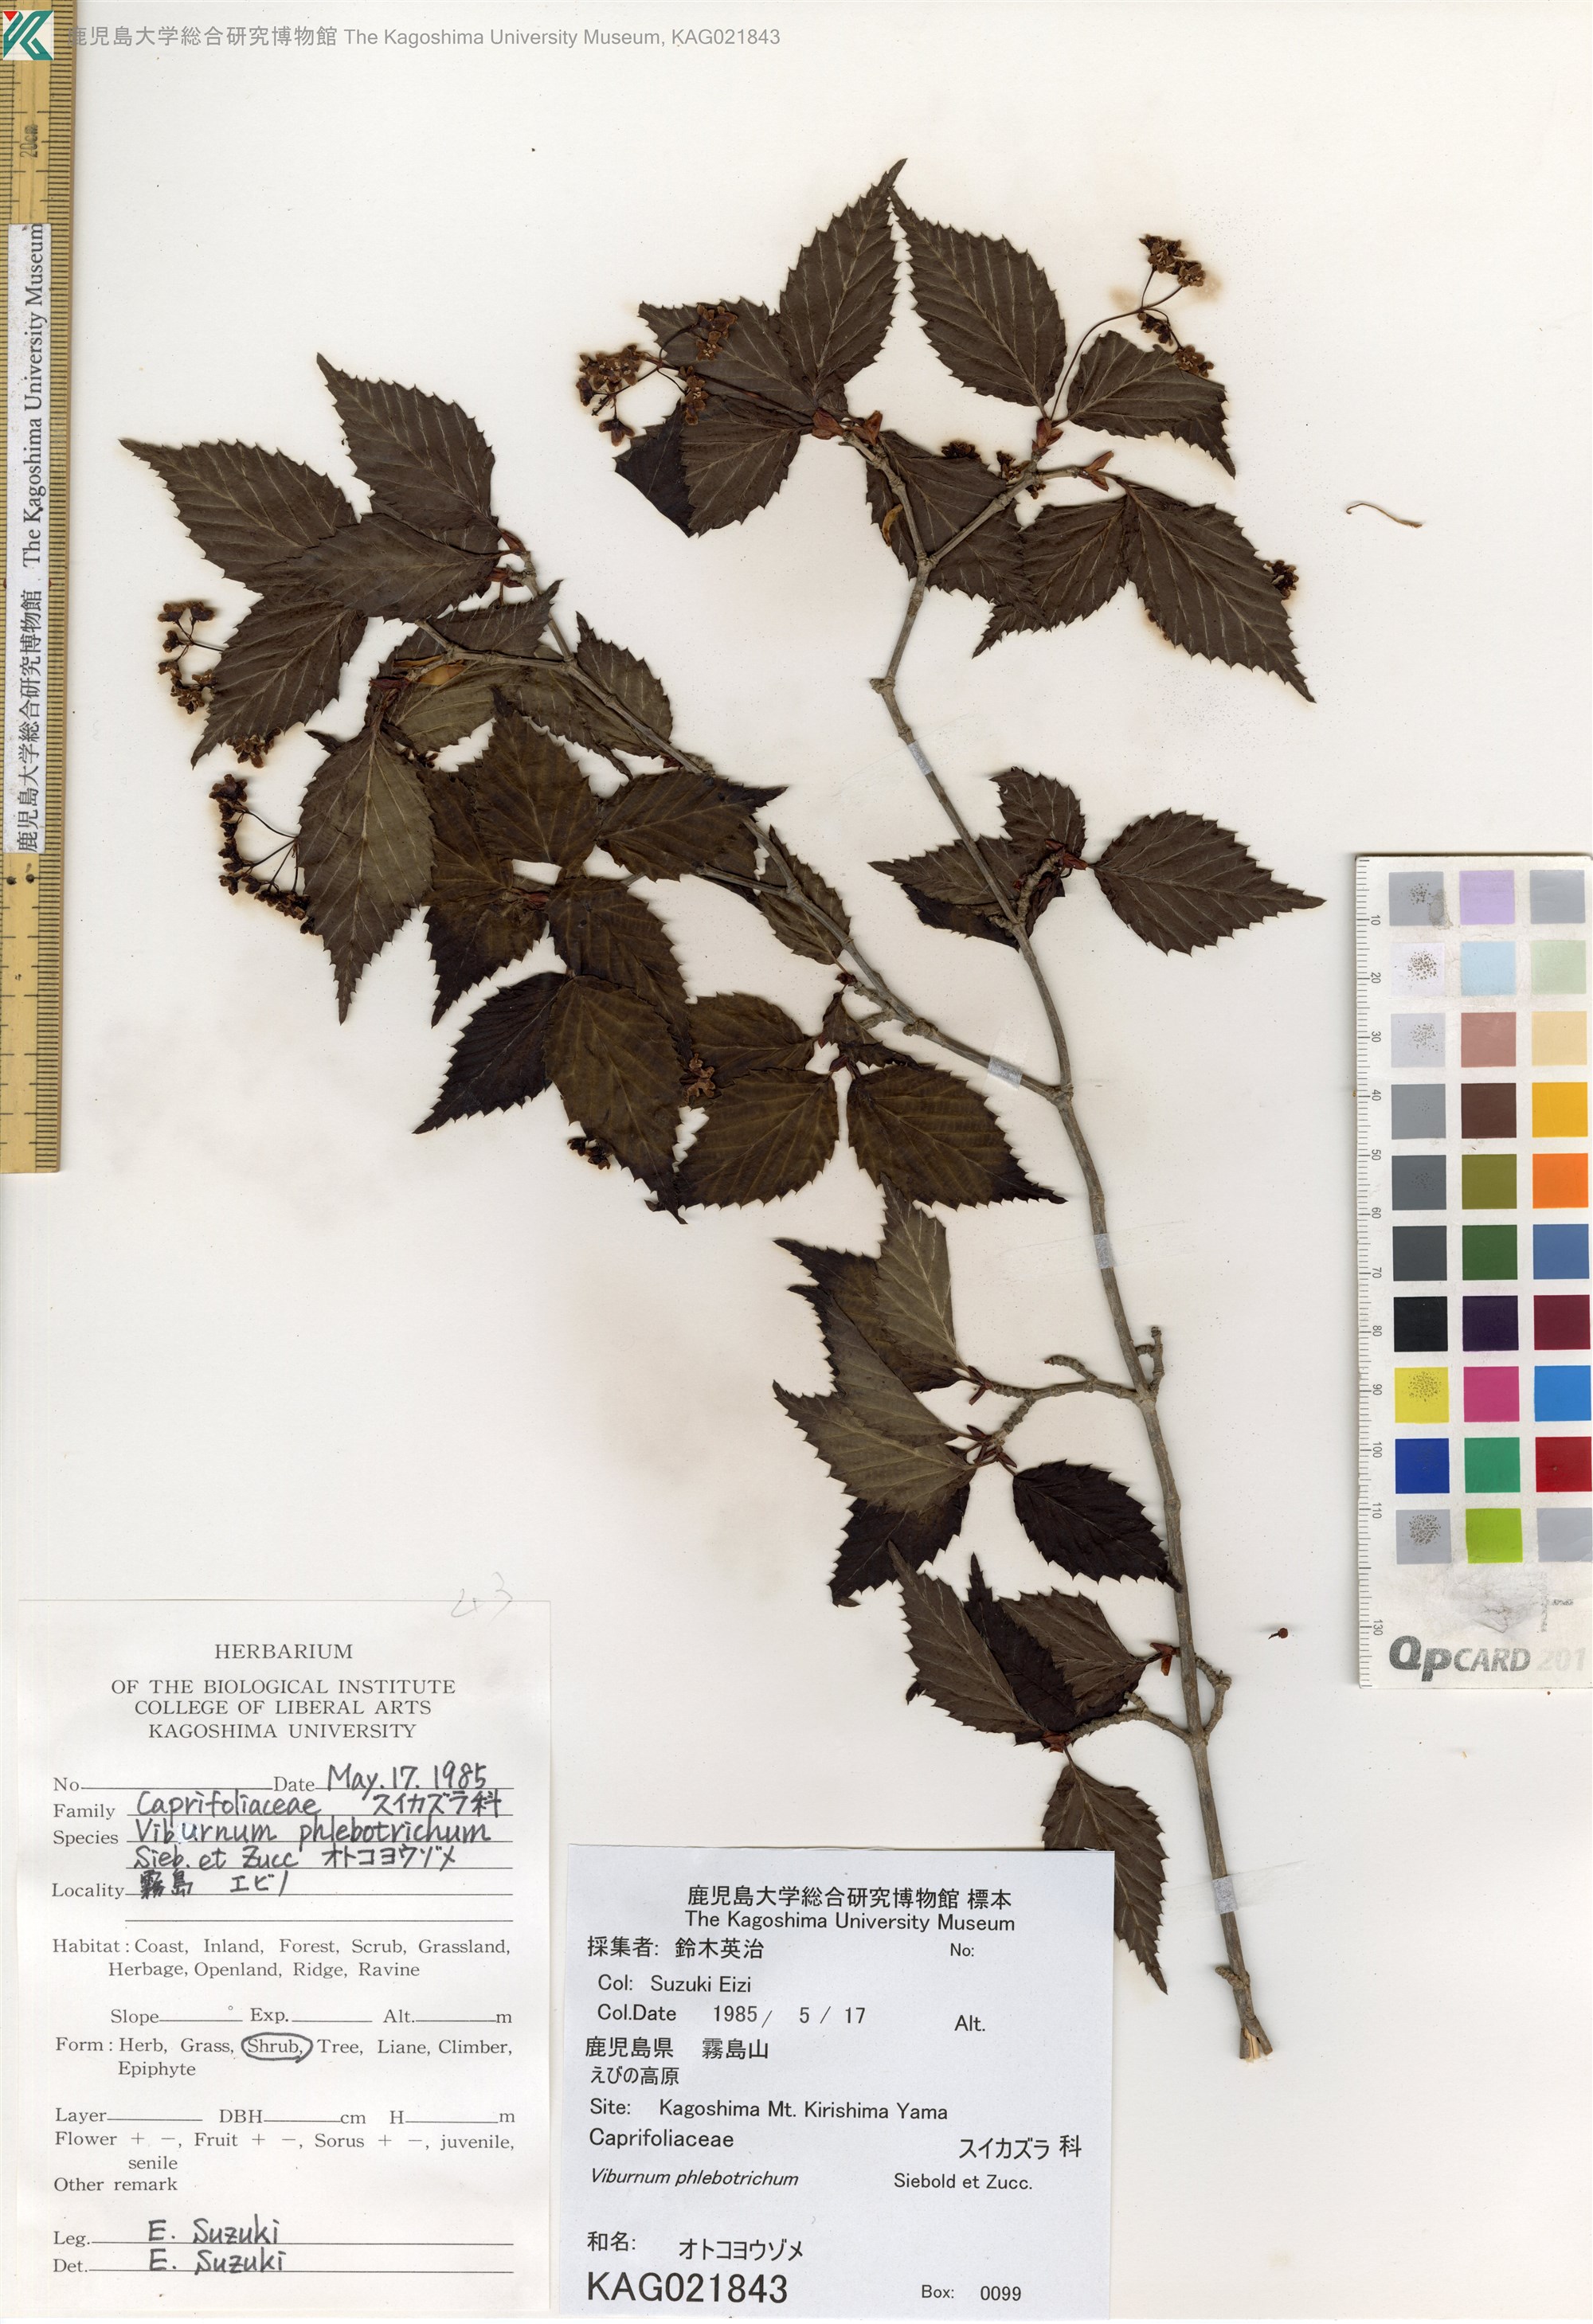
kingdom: Plantae
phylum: Tracheophyta
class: Magnoliopsida
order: Dipsacales
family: Viburnaceae
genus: Viburnum
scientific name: Viburnum phlebotrichum
